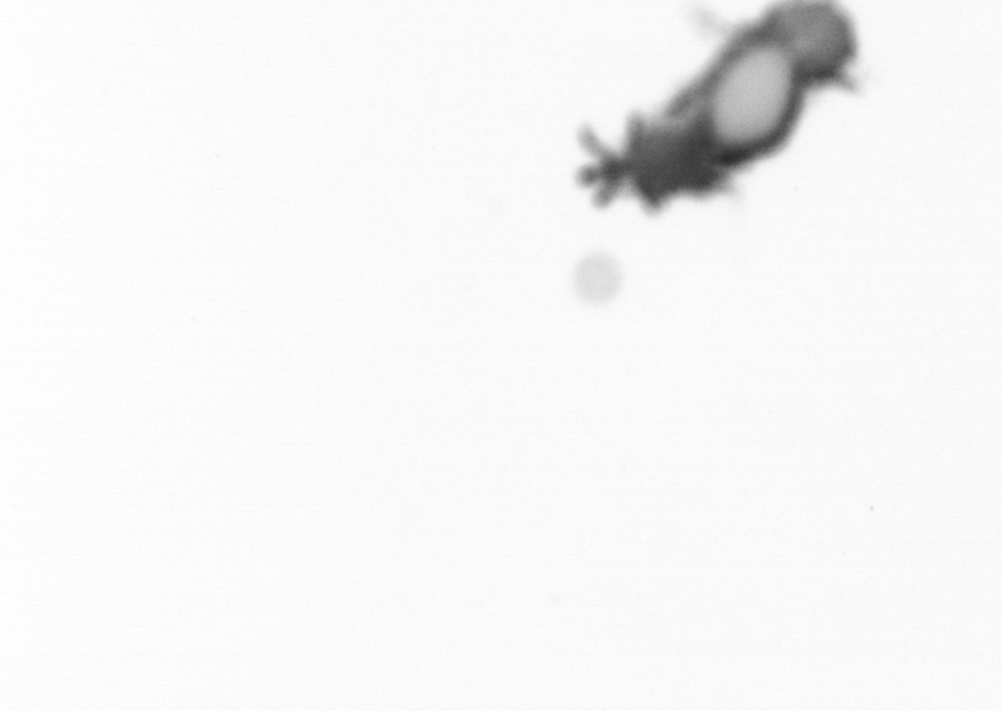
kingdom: Animalia
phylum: Annelida
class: Polychaeta
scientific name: Polychaeta
